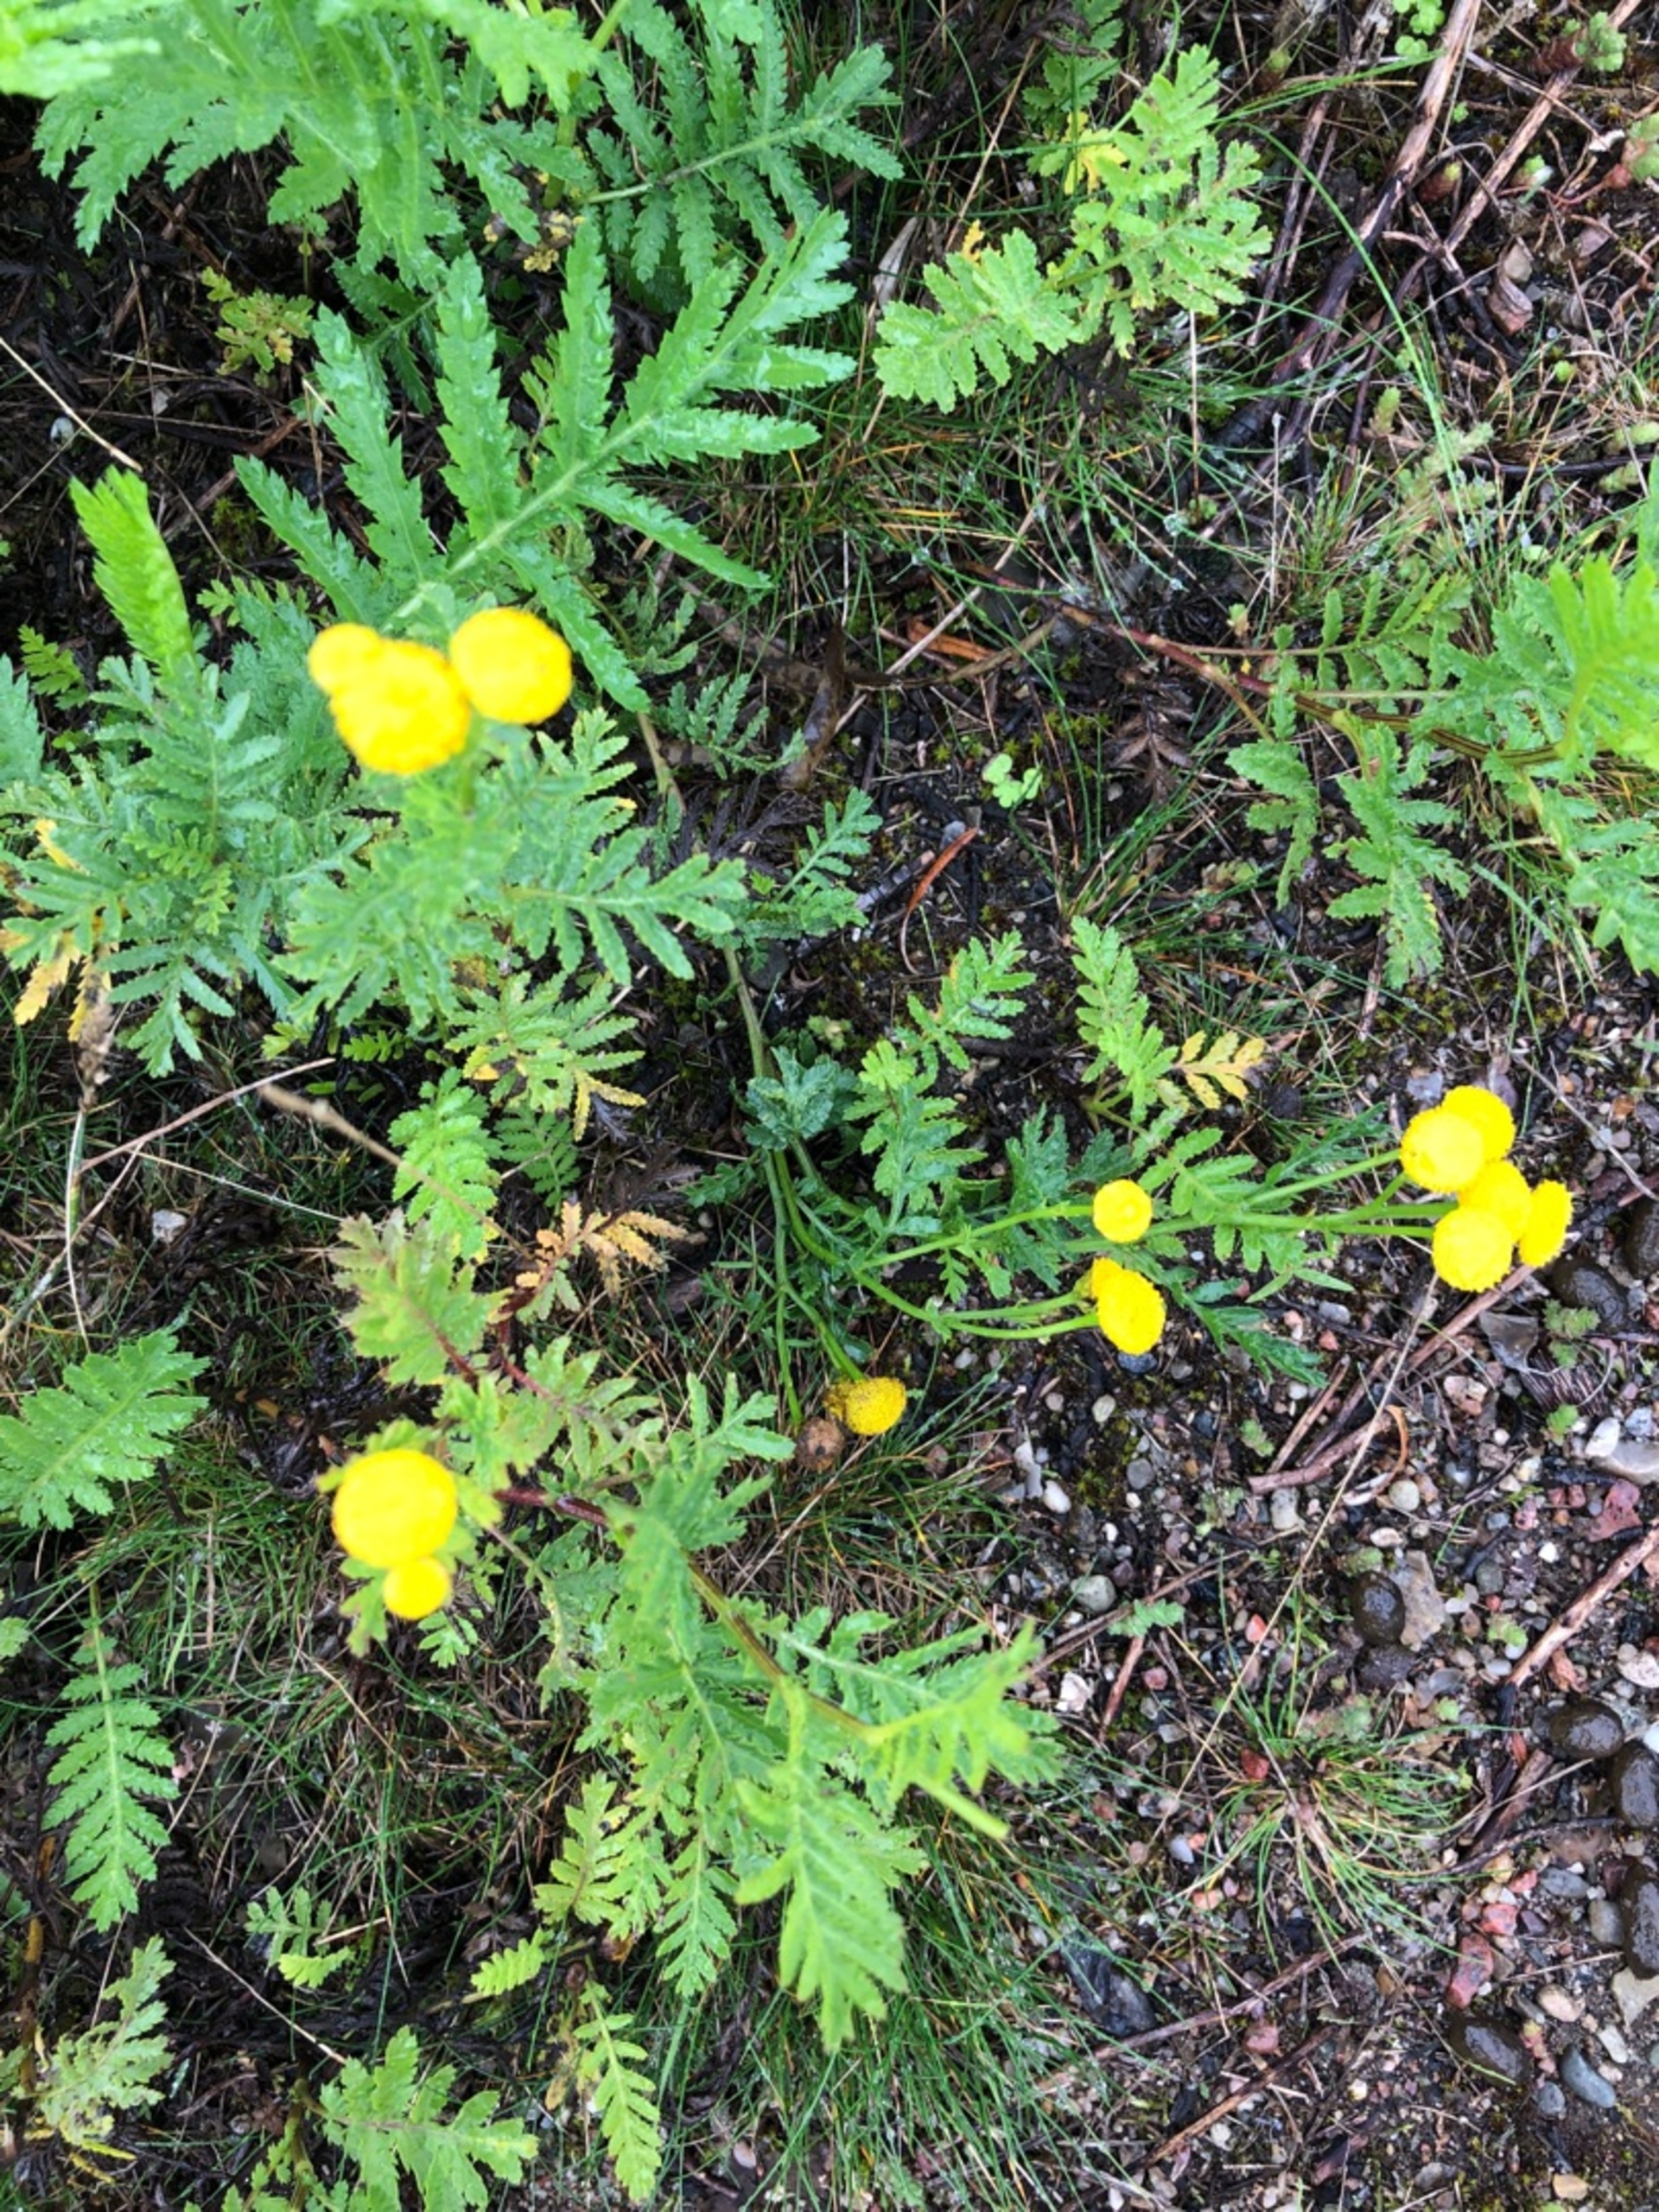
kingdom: Plantae
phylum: Tracheophyta
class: Magnoliopsida
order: Asterales
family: Asteraceae
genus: Tanacetum
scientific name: Tanacetum vulgare
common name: Rejnfan
